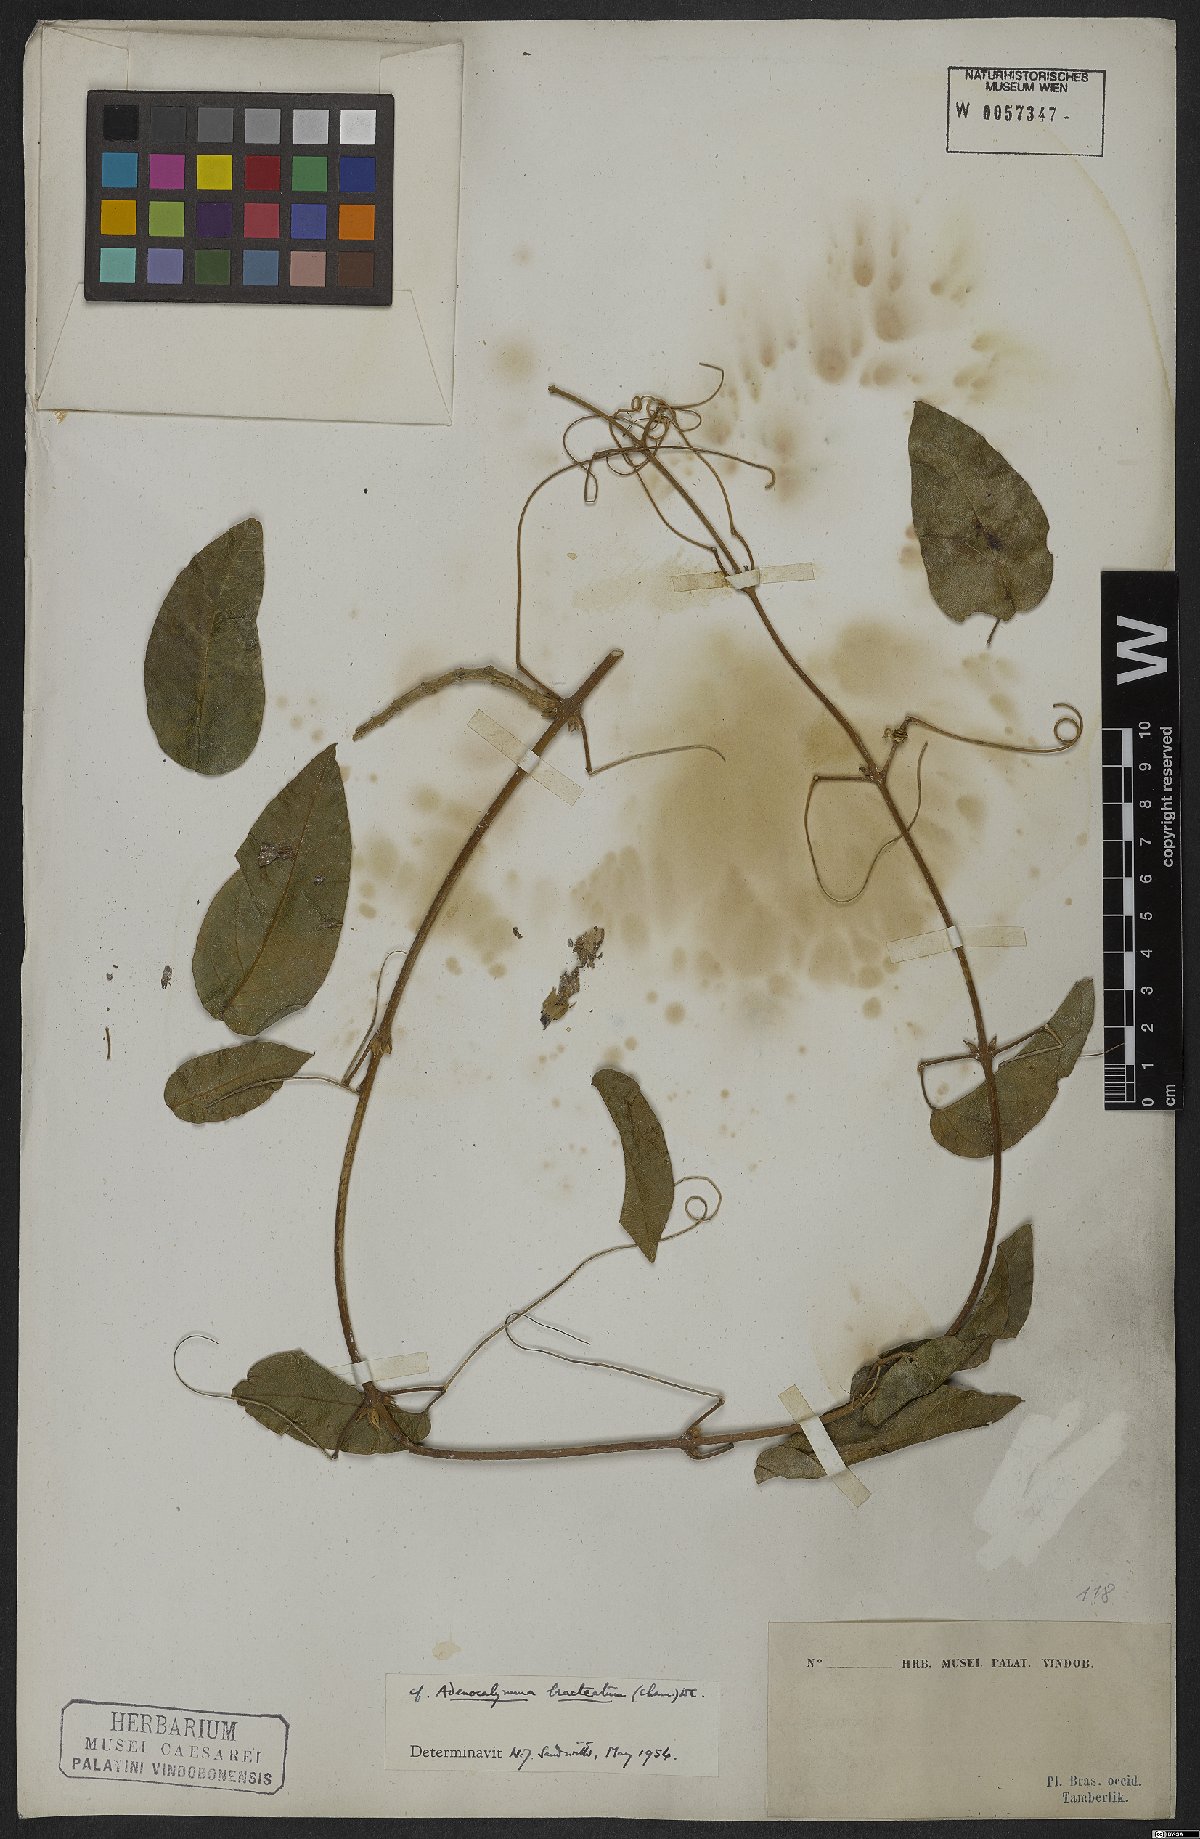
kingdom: Plantae
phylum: Tracheophyta
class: Magnoliopsida
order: Lamiales
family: Bignoniaceae
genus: Adenocalymma
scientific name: Adenocalymma bracteatum
